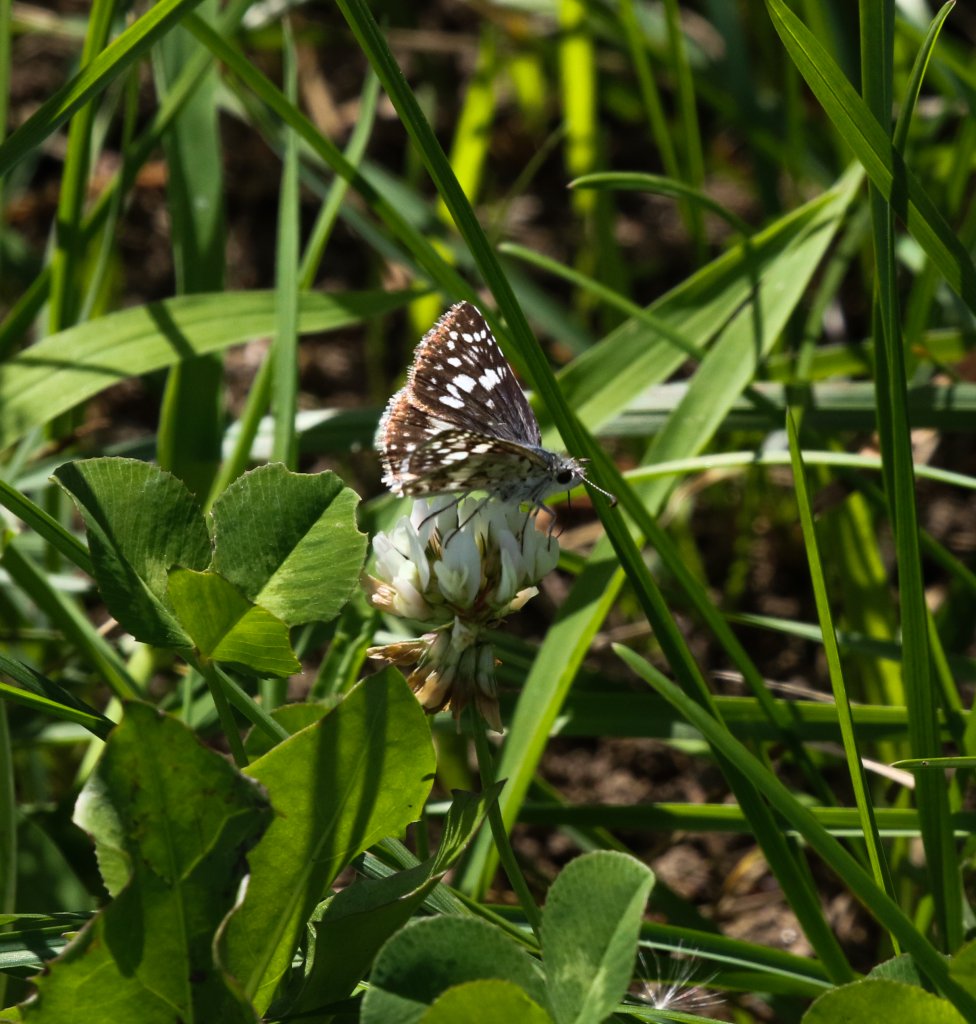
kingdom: Animalia
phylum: Arthropoda
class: Insecta
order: Lepidoptera
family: Hesperiidae
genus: Pyrgus
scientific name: Pyrgus communis
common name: Common Checkered-Skipper
